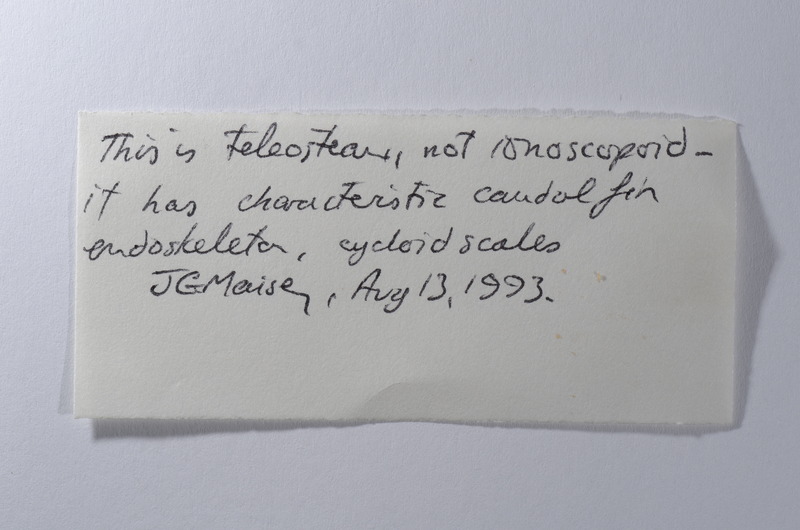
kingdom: Animalia
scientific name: Animalia
